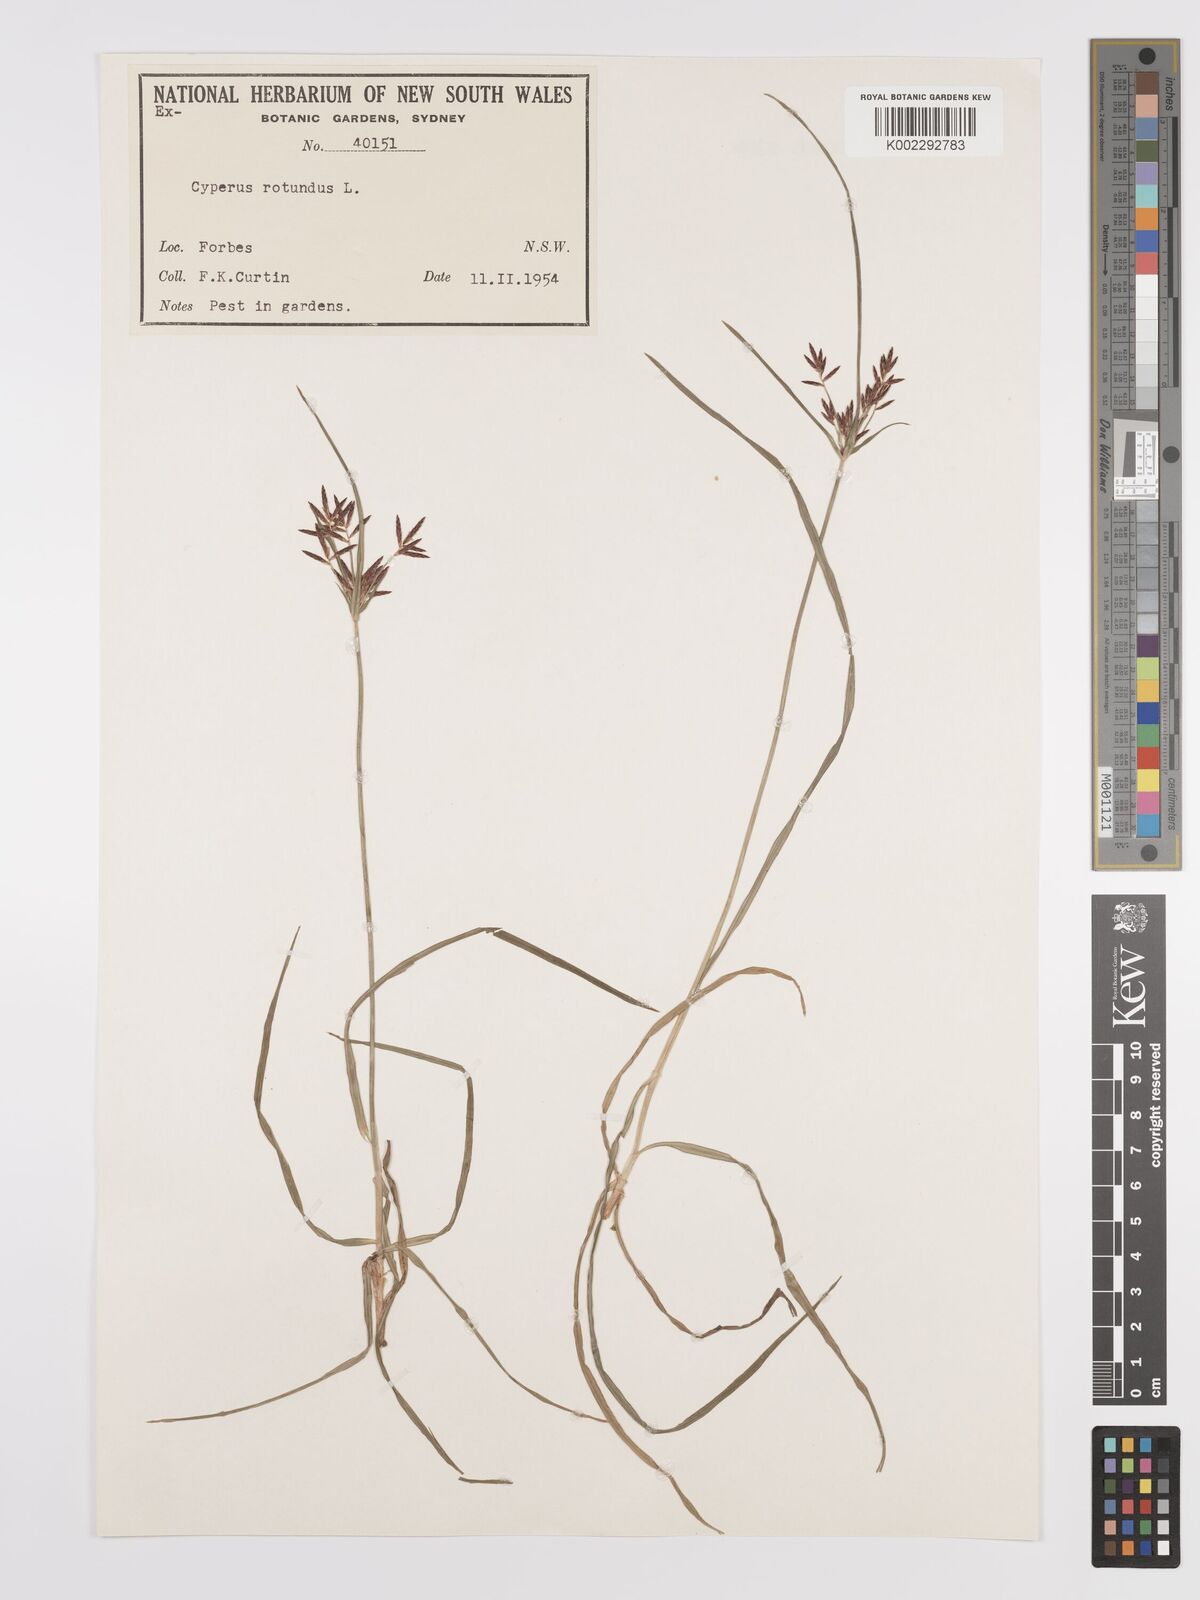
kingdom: Plantae
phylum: Tracheophyta
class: Liliopsida
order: Poales
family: Cyperaceae
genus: Cyperus
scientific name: Cyperus rotundus
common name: Nutgrass
